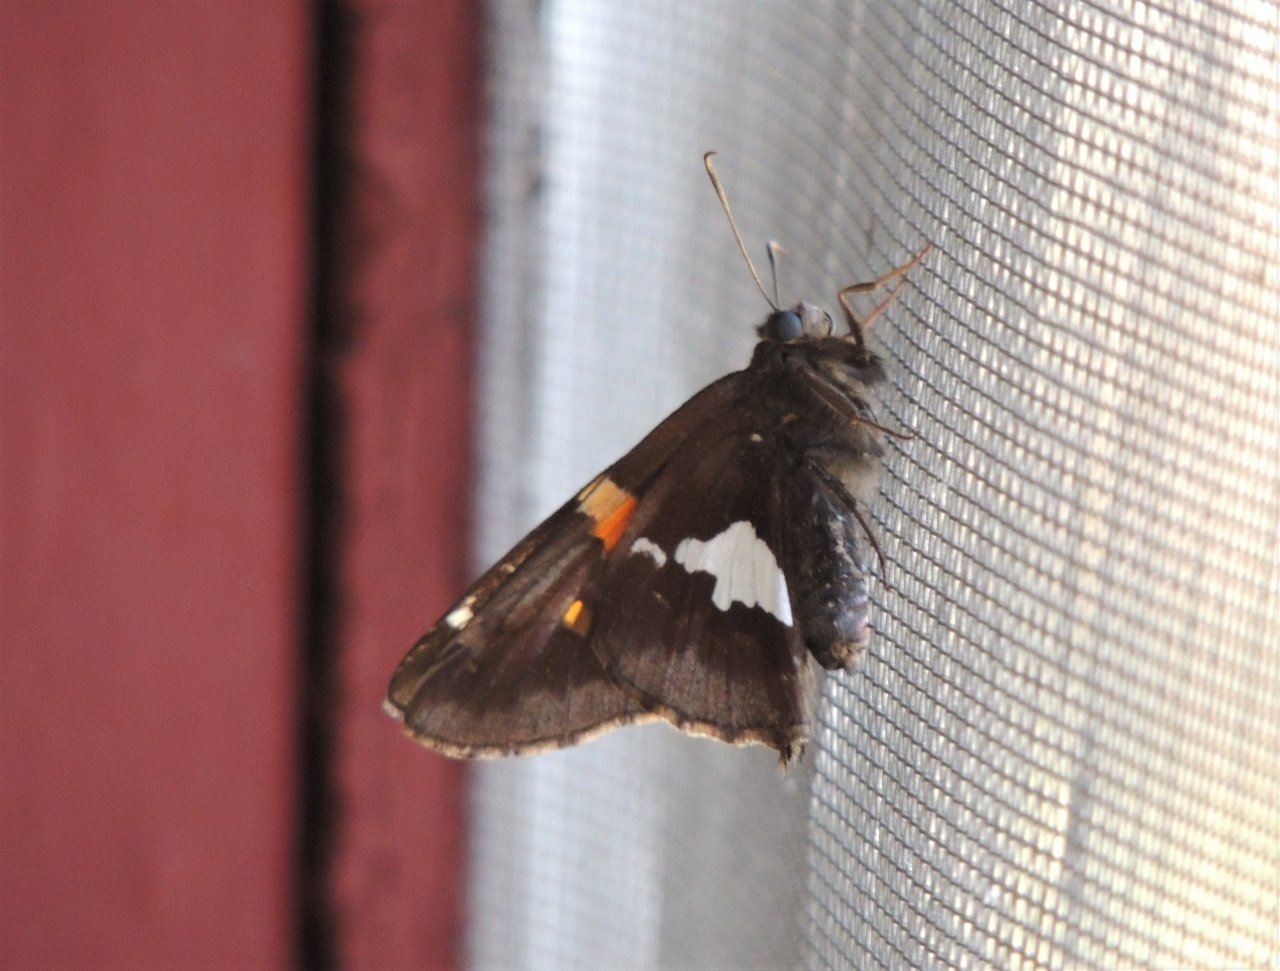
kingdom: Animalia
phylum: Arthropoda
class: Insecta
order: Lepidoptera
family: Hesperiidae
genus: Epargyreus
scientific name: Epargyreus clarus
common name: Silver-spotted Skipper
